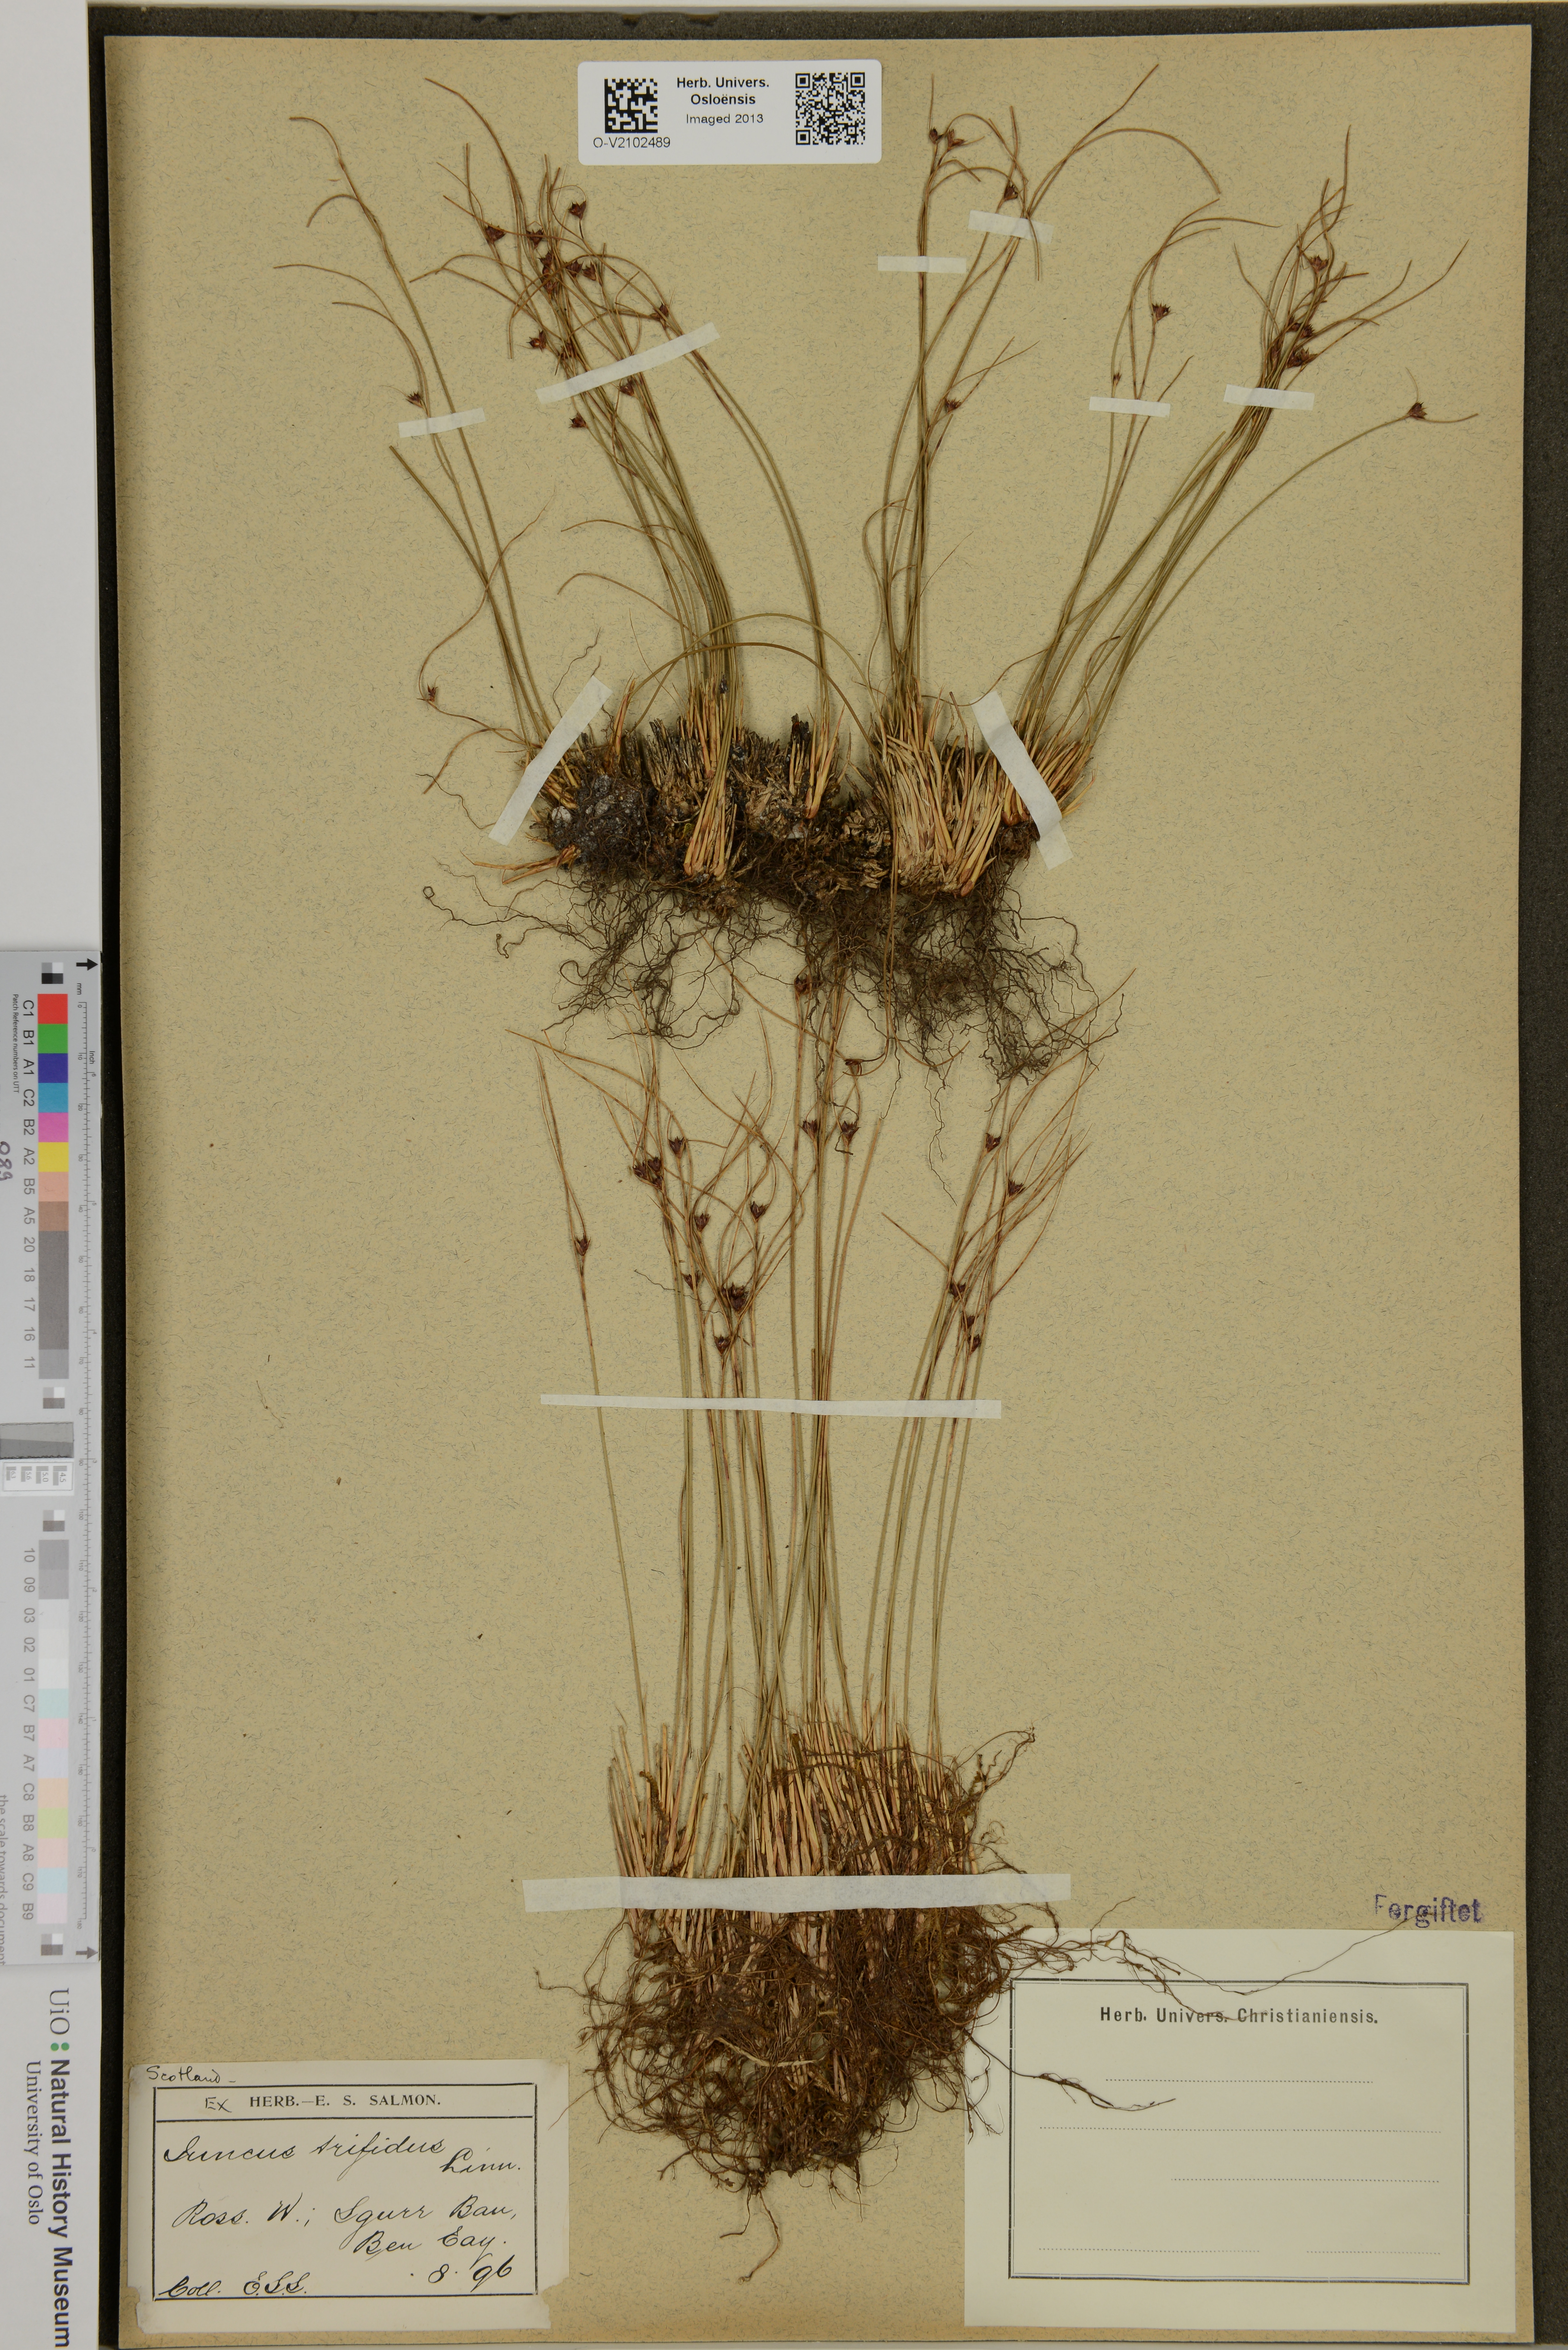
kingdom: Plantae
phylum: Tracheophyta
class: Liliopsida
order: Poales
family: Juncaceae
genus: Oreojuncus
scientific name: Oreojuncus trifidus
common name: Highland rush
